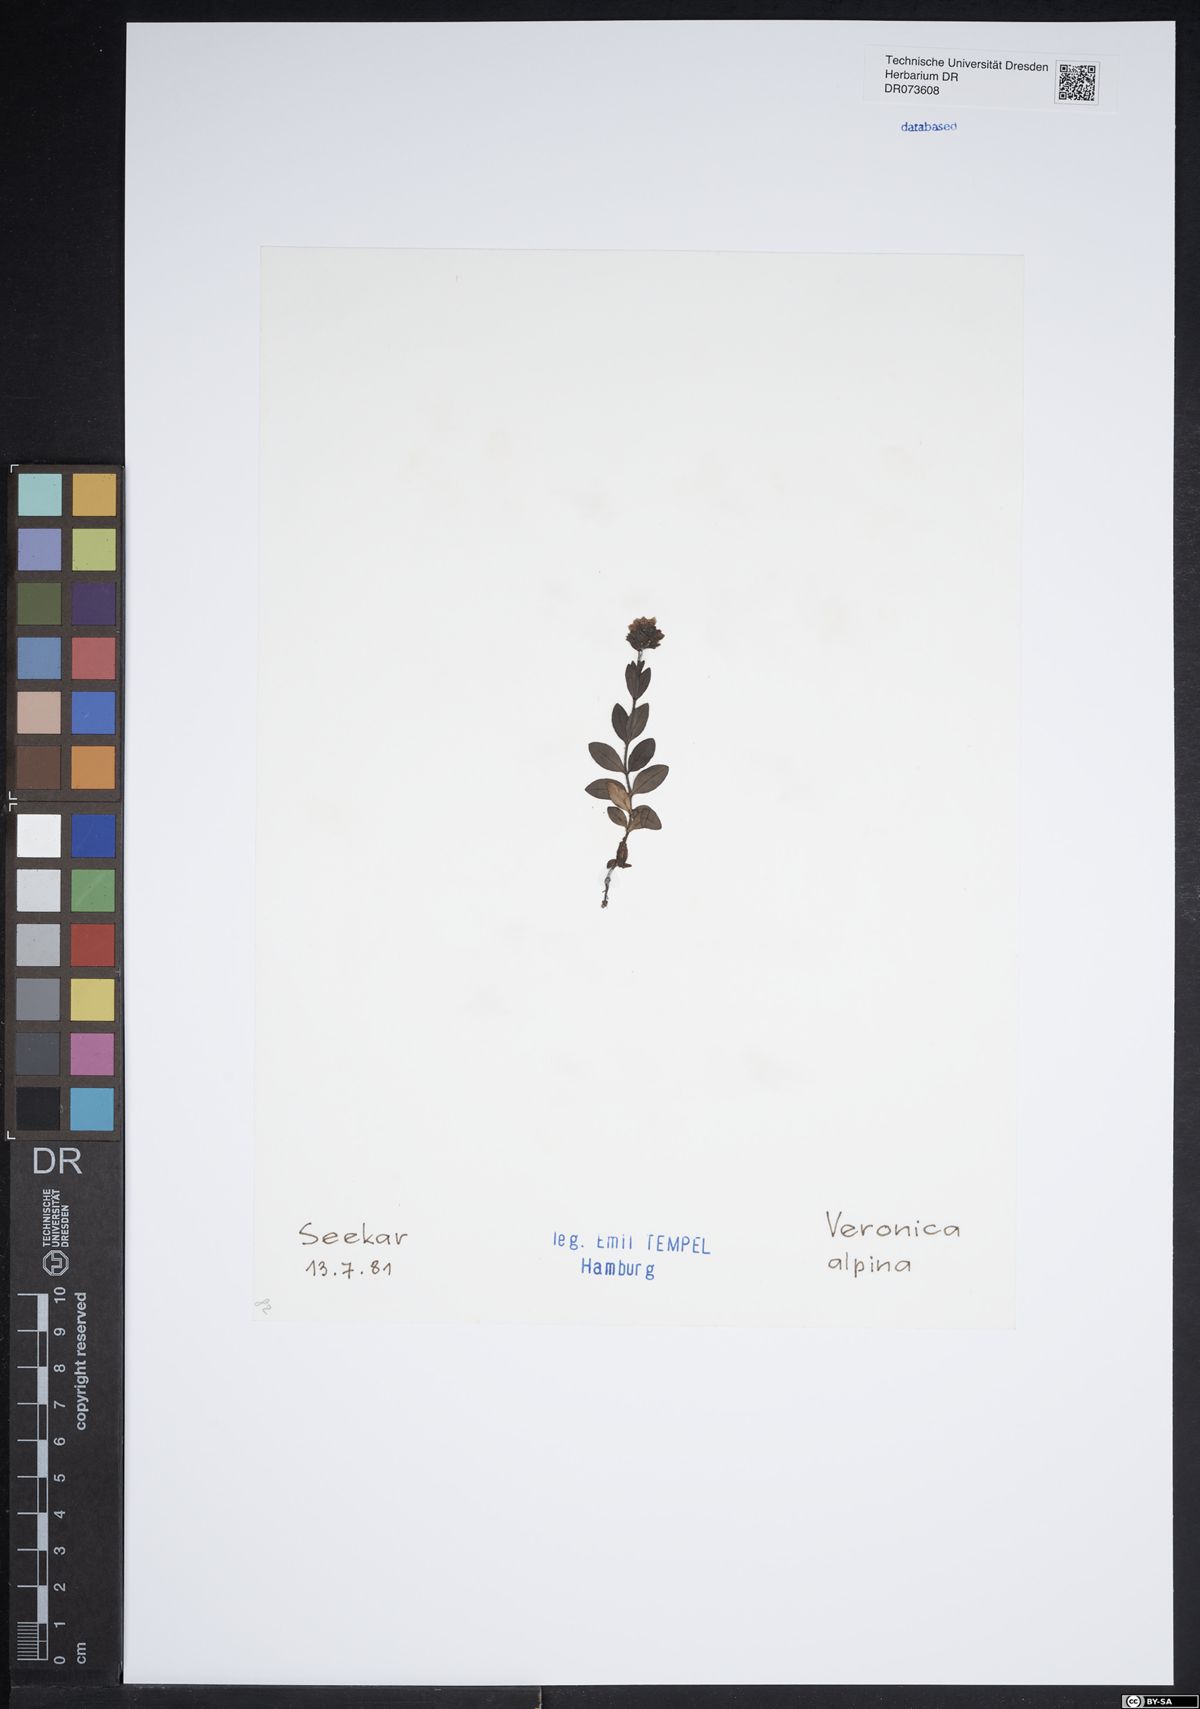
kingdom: Plantae
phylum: Tracheophyta
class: Magnoliopsida
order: Lamiales
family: Plantaginaceae
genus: Veronica
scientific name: Veronica alpina
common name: Alpine speedwell
